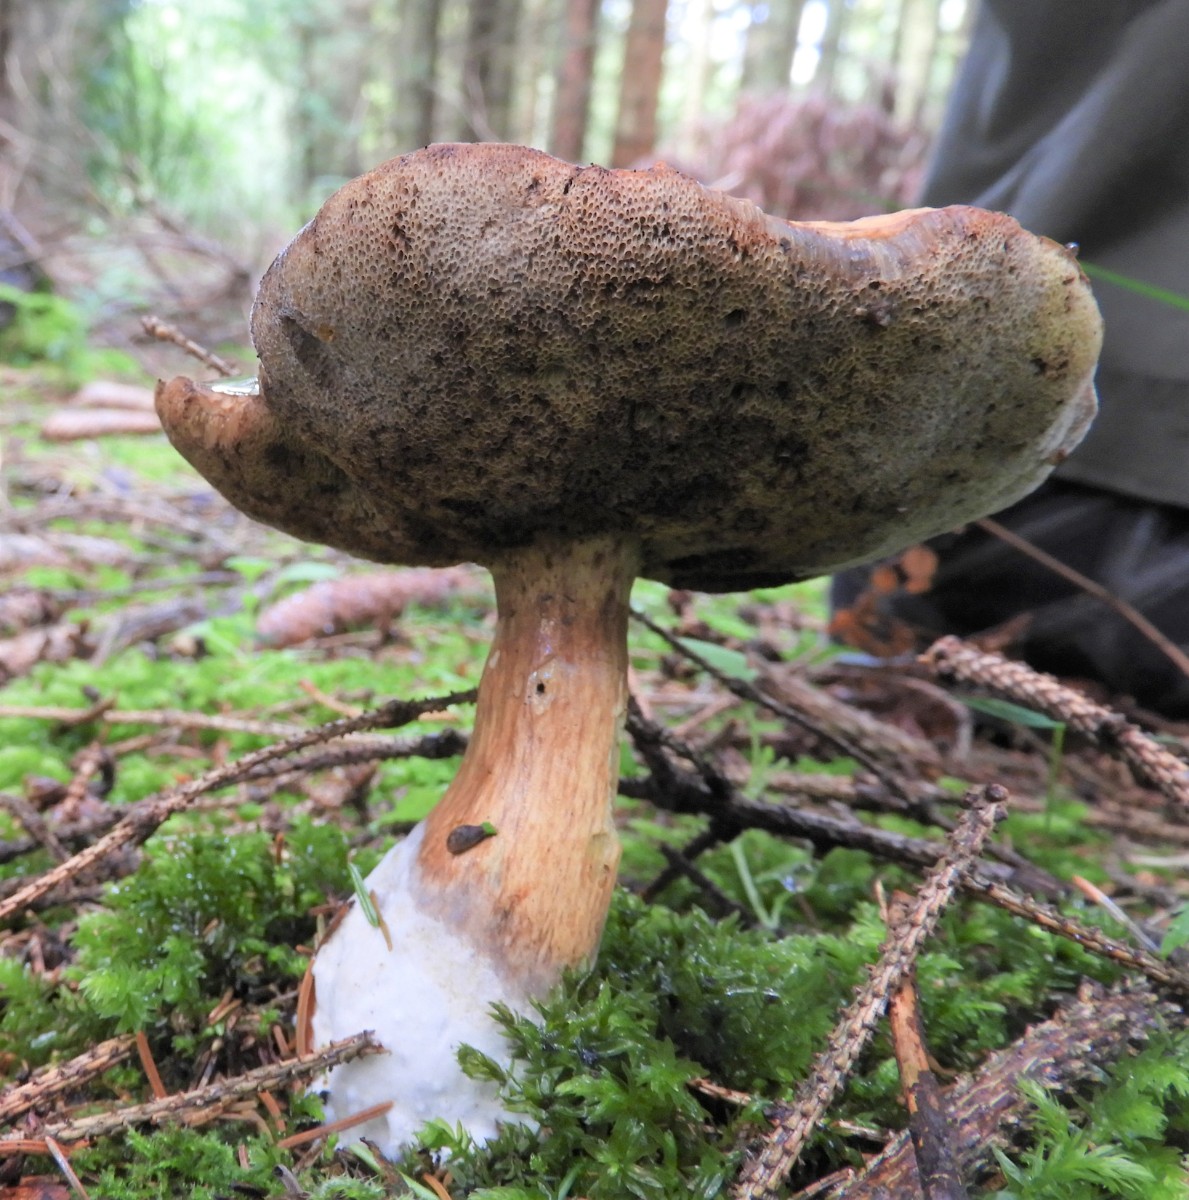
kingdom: Fungi
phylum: Basidiomycota
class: Agaricomycetes
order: Boletales
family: Boletaceae
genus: Imleria
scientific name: Imleria badia
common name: brunstokket rørhat
